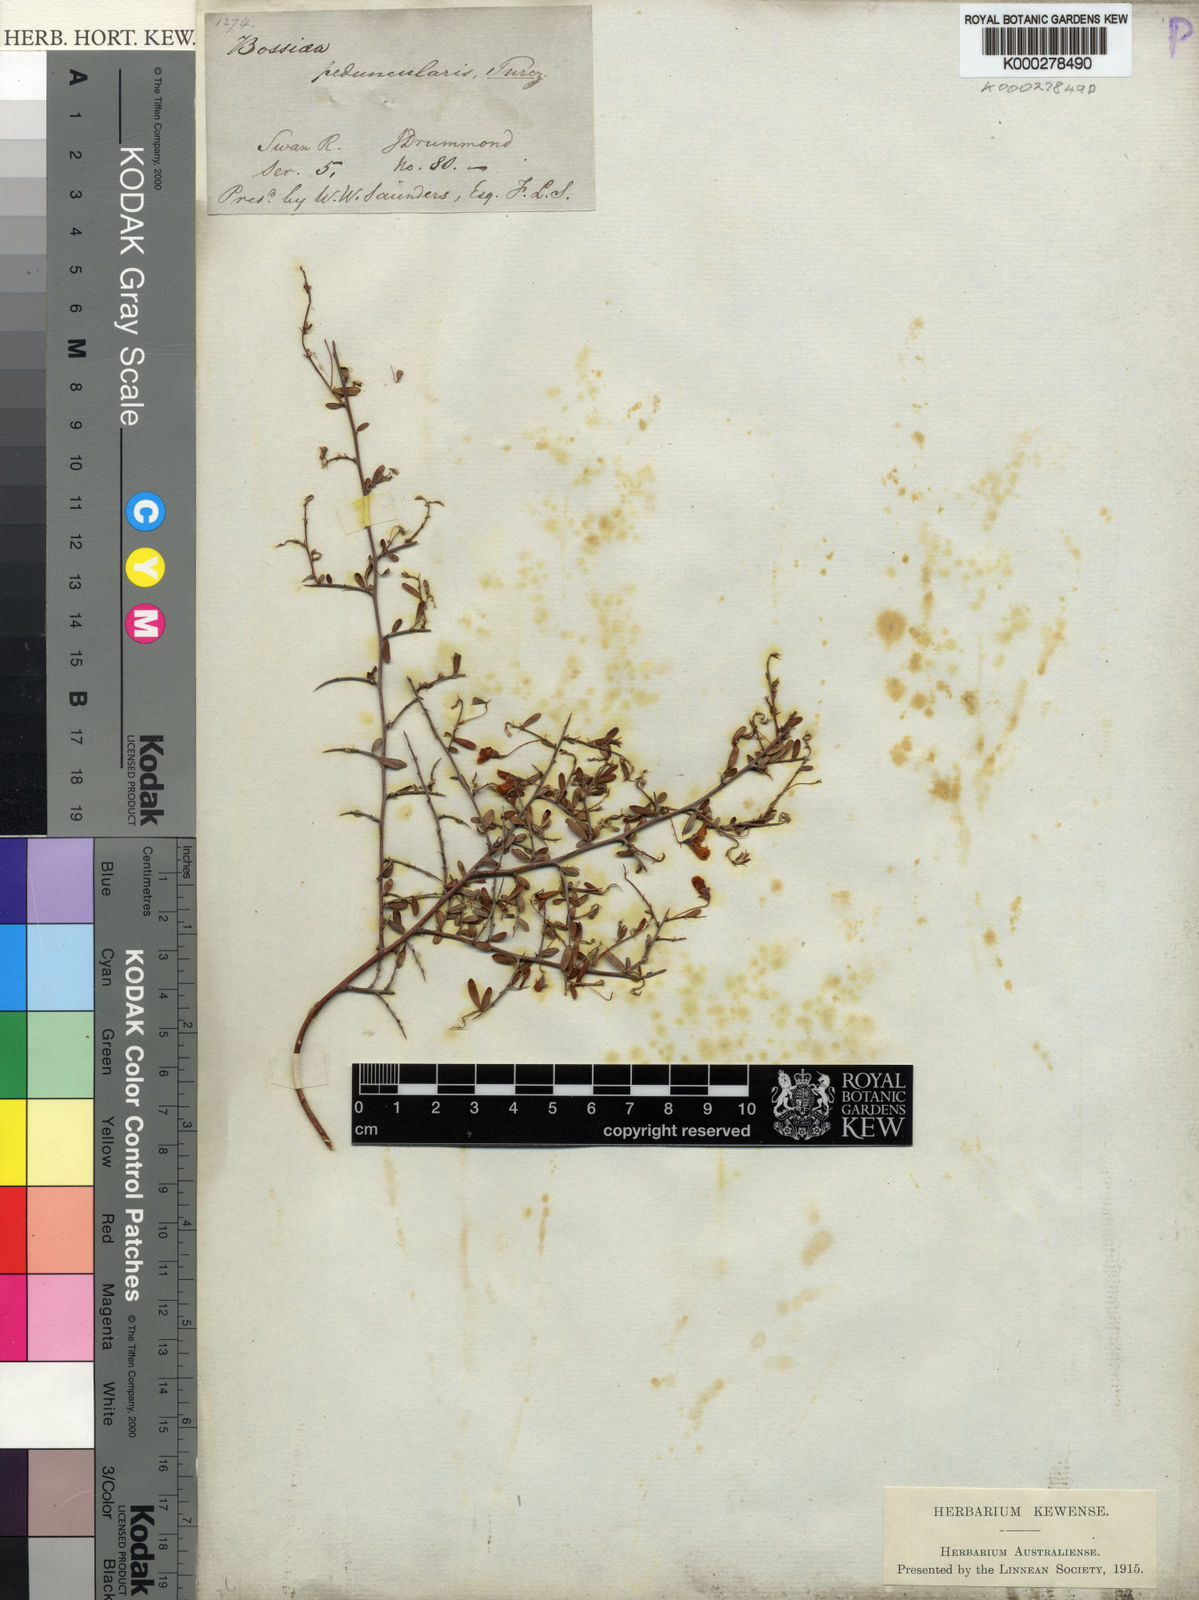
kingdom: Plantae
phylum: Tracheophyta
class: Magnoliopsida
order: Fabales
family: Fabaceae
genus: Bossiaea
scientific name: Bossiaea peduncularis
